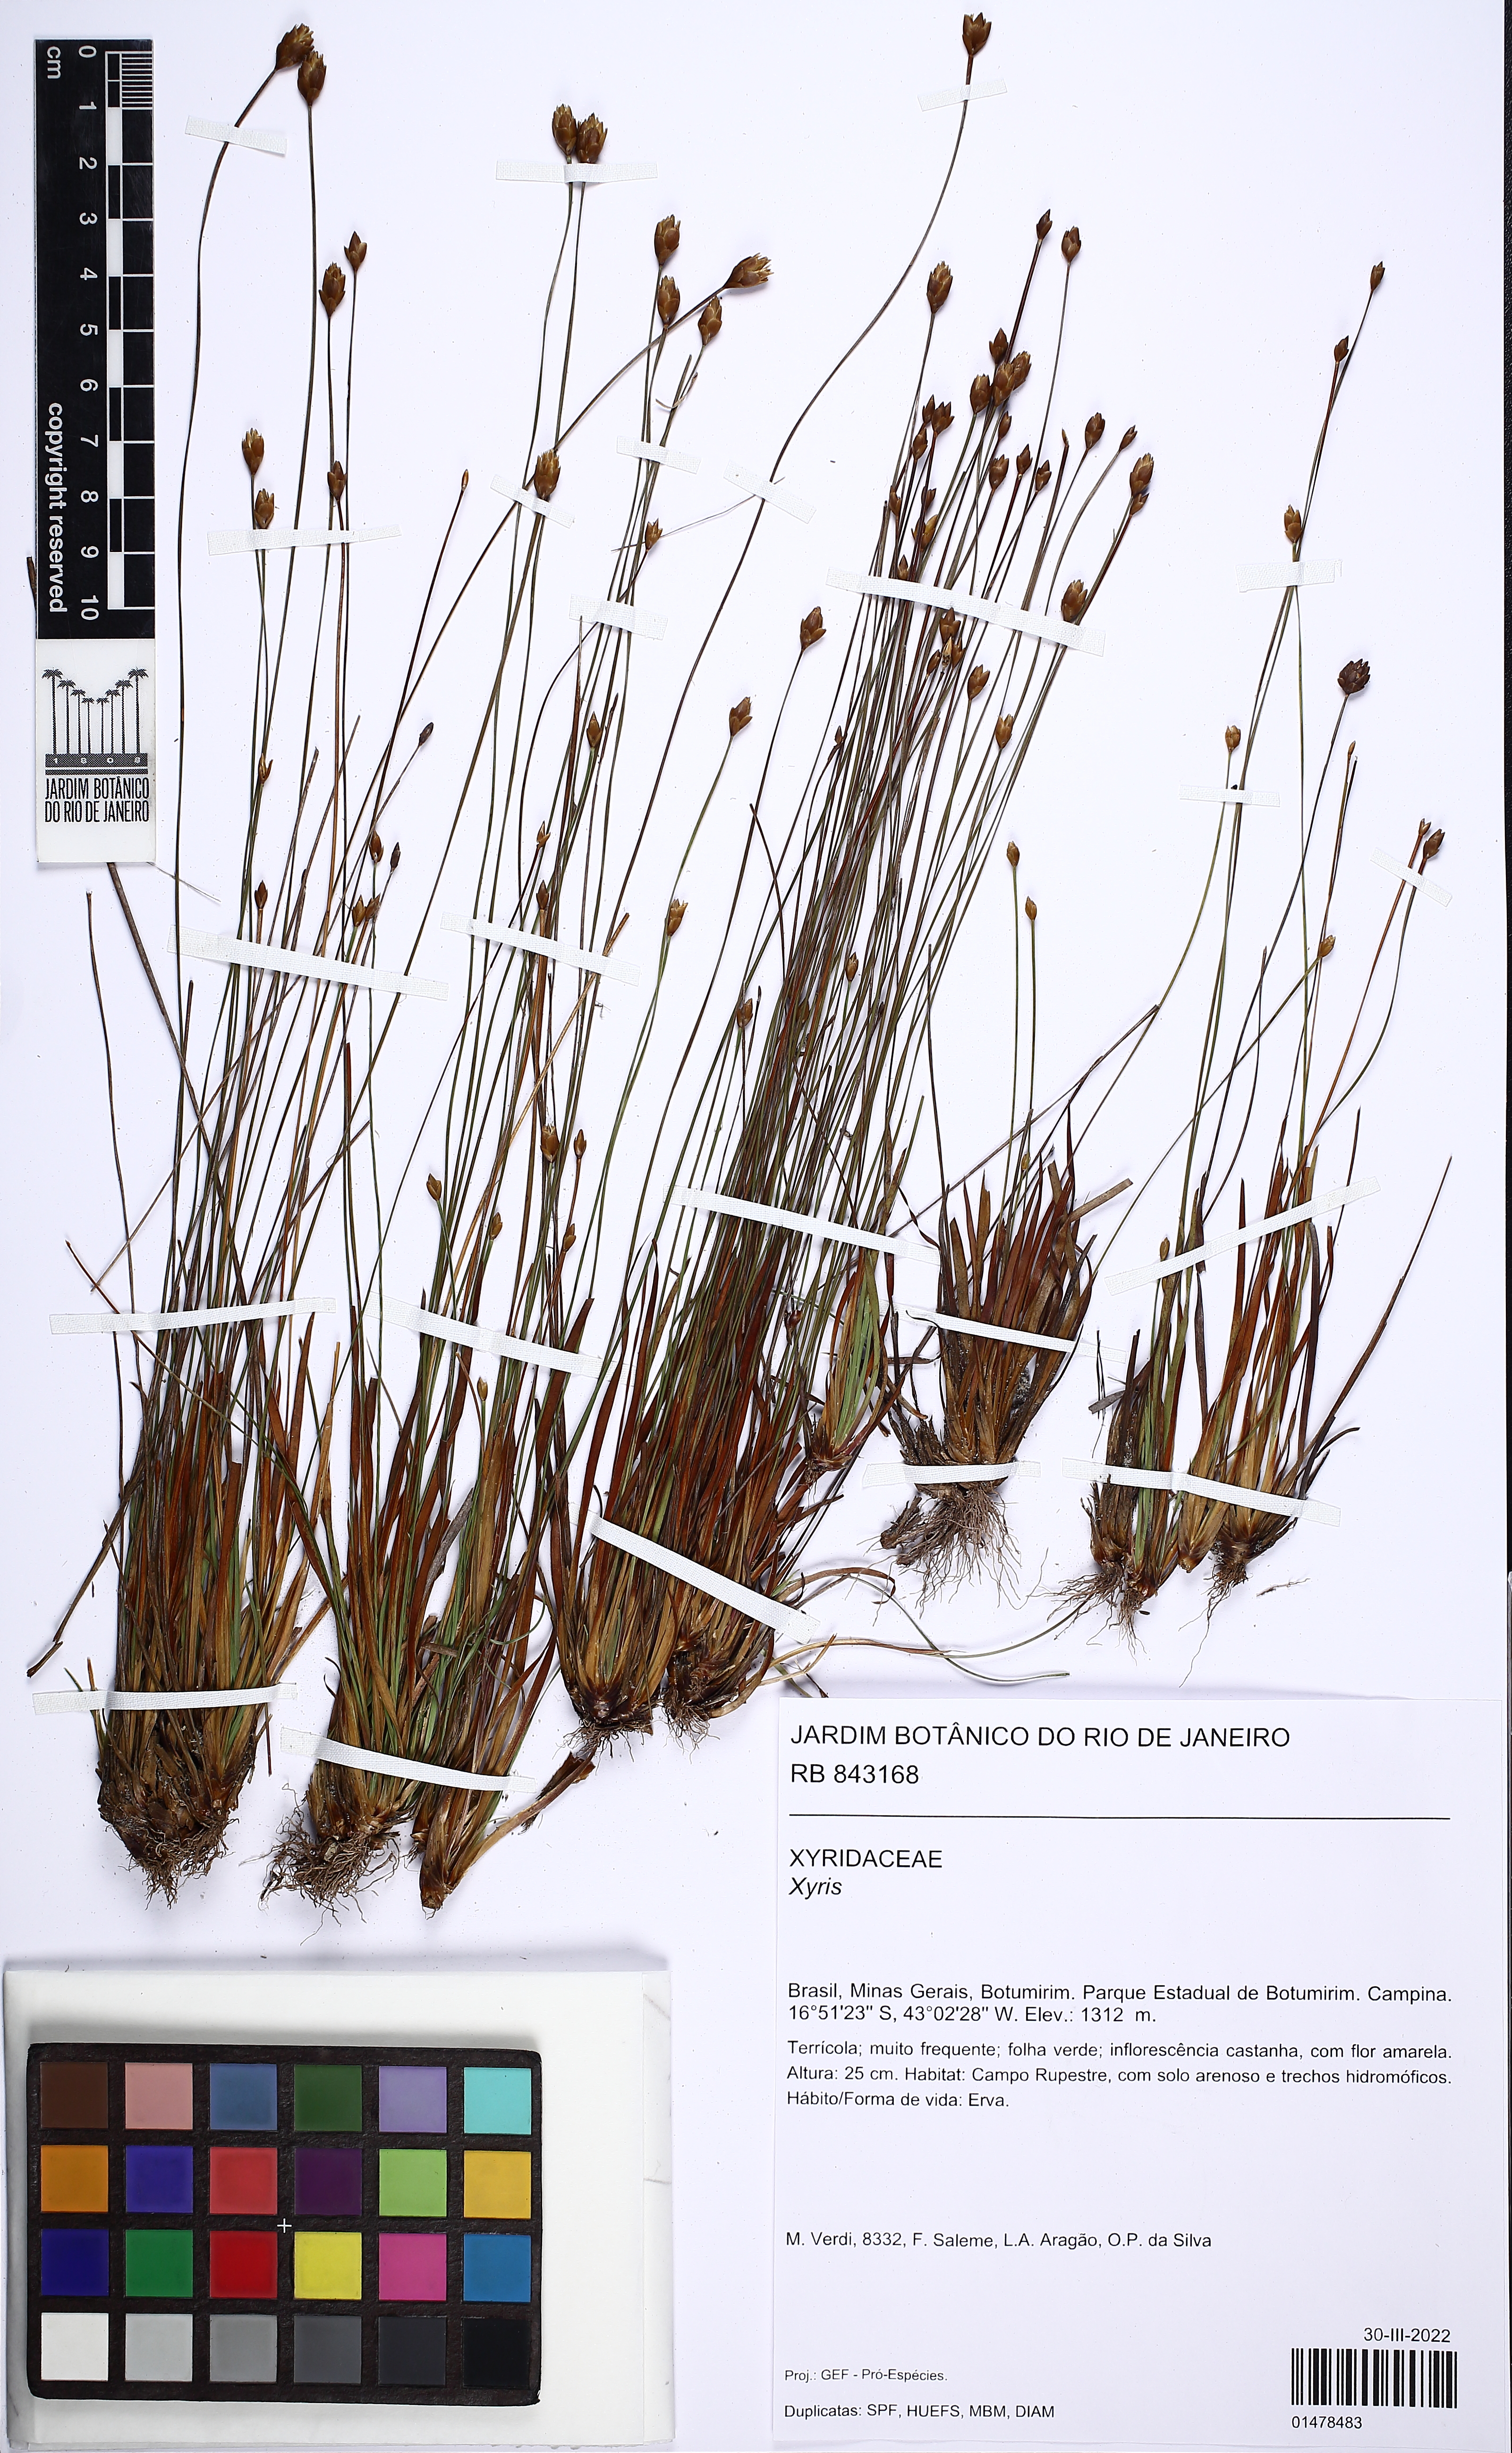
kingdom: Plantae
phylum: Tracheophyta
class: Liliopsida
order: Poales
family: Xyridaceae
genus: Xyris
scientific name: Xyris
